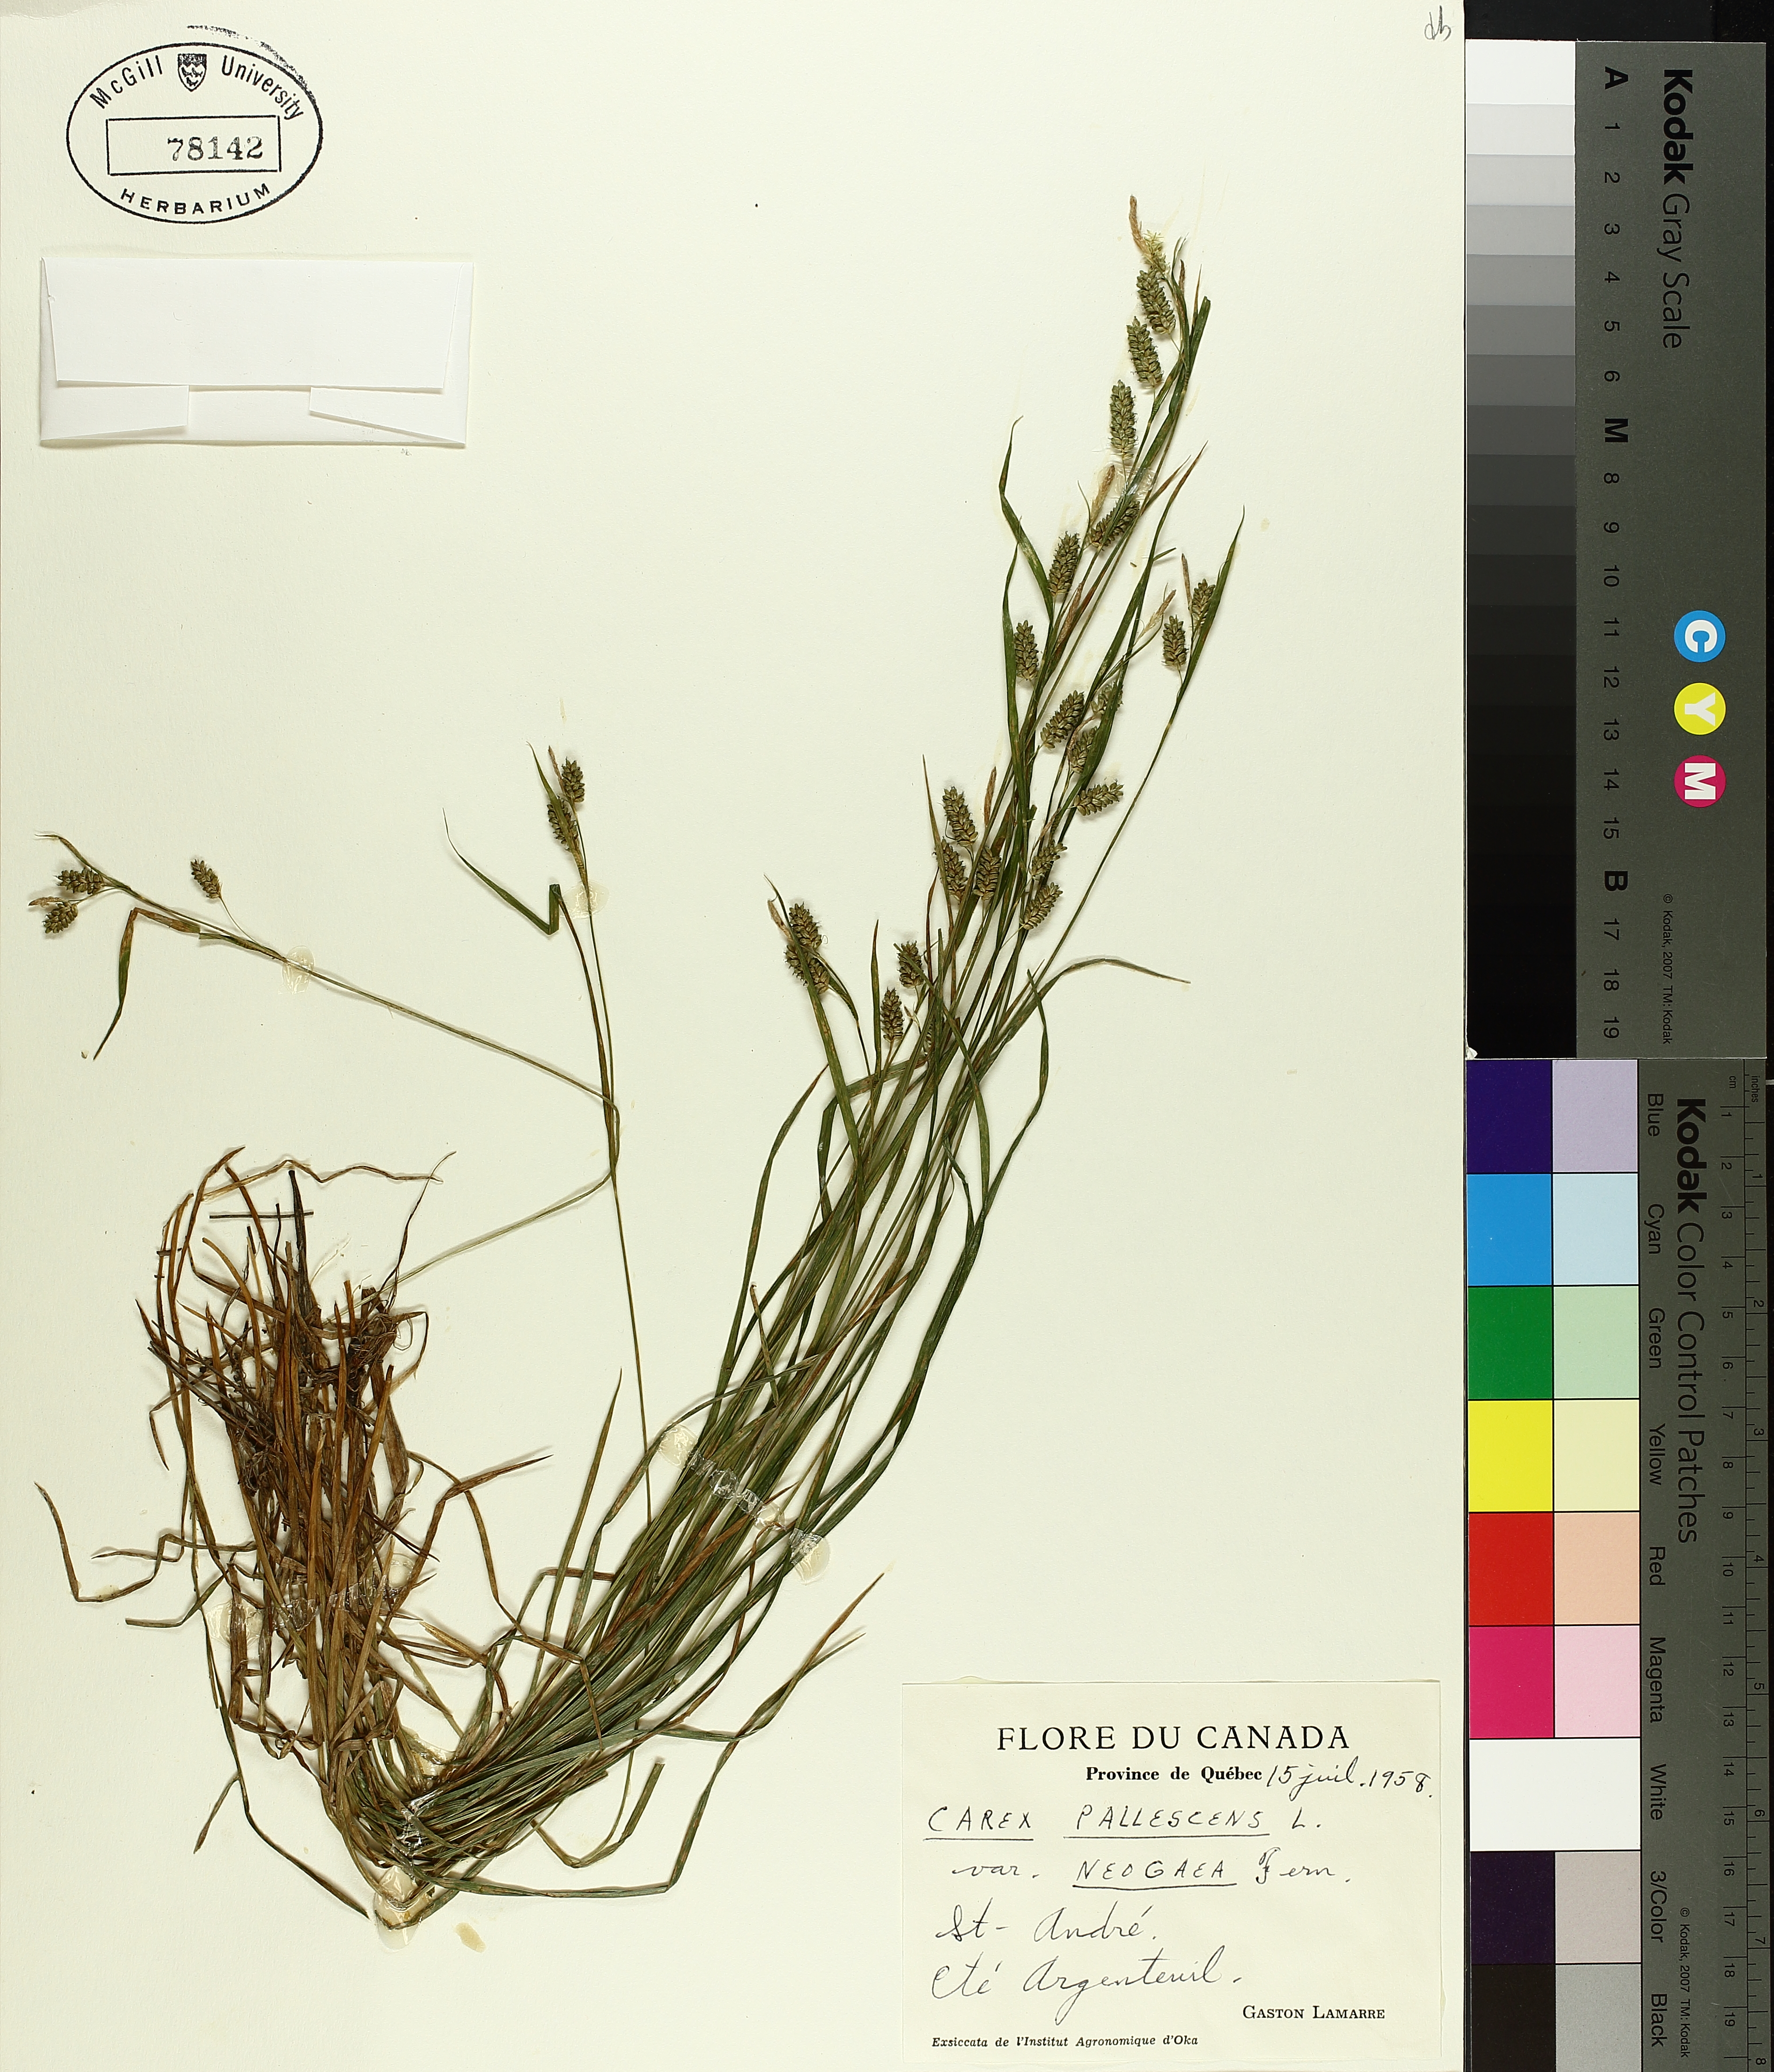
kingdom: Plantae
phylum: Tracheophyta
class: Liliopsida
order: Poales
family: Cyperaceae
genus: Carex
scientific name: Carex pallescens
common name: Pale sedge
